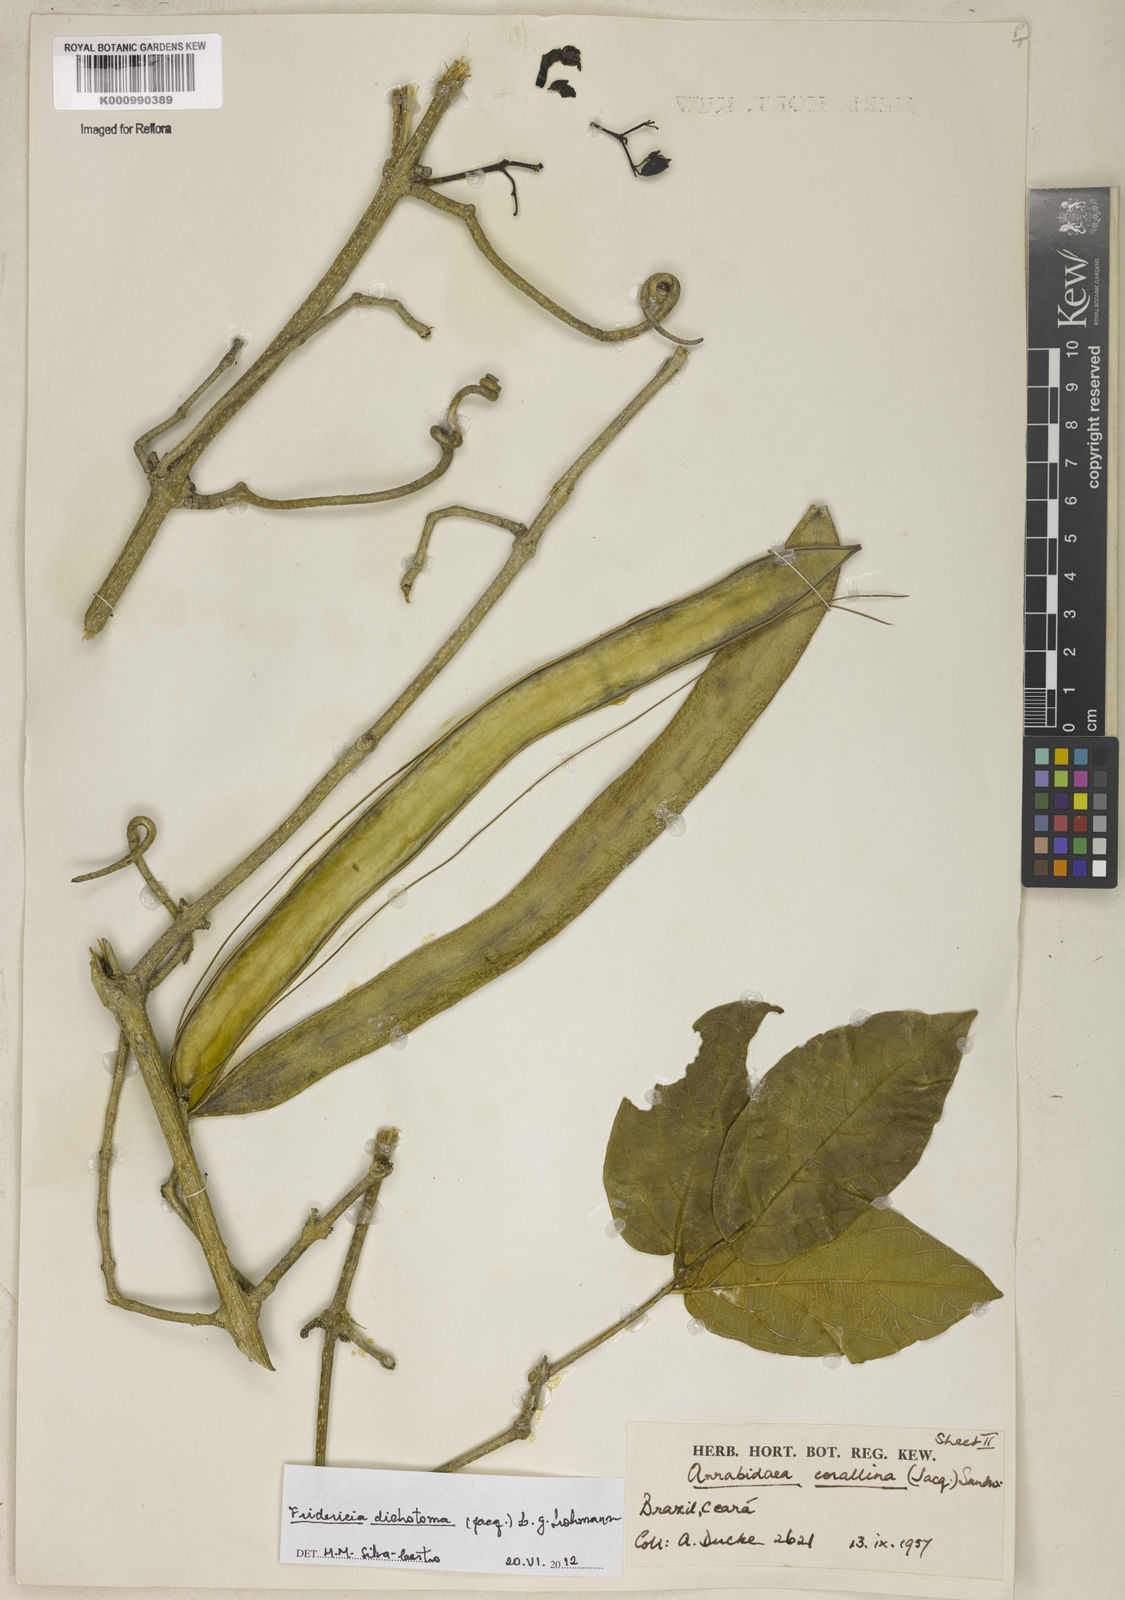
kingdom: Plantae
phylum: Tracheophyta
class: Magnoliopsida
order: Lamiales
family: Bignoniaceae
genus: Tanaecium
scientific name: Tanaecium dichotomum
